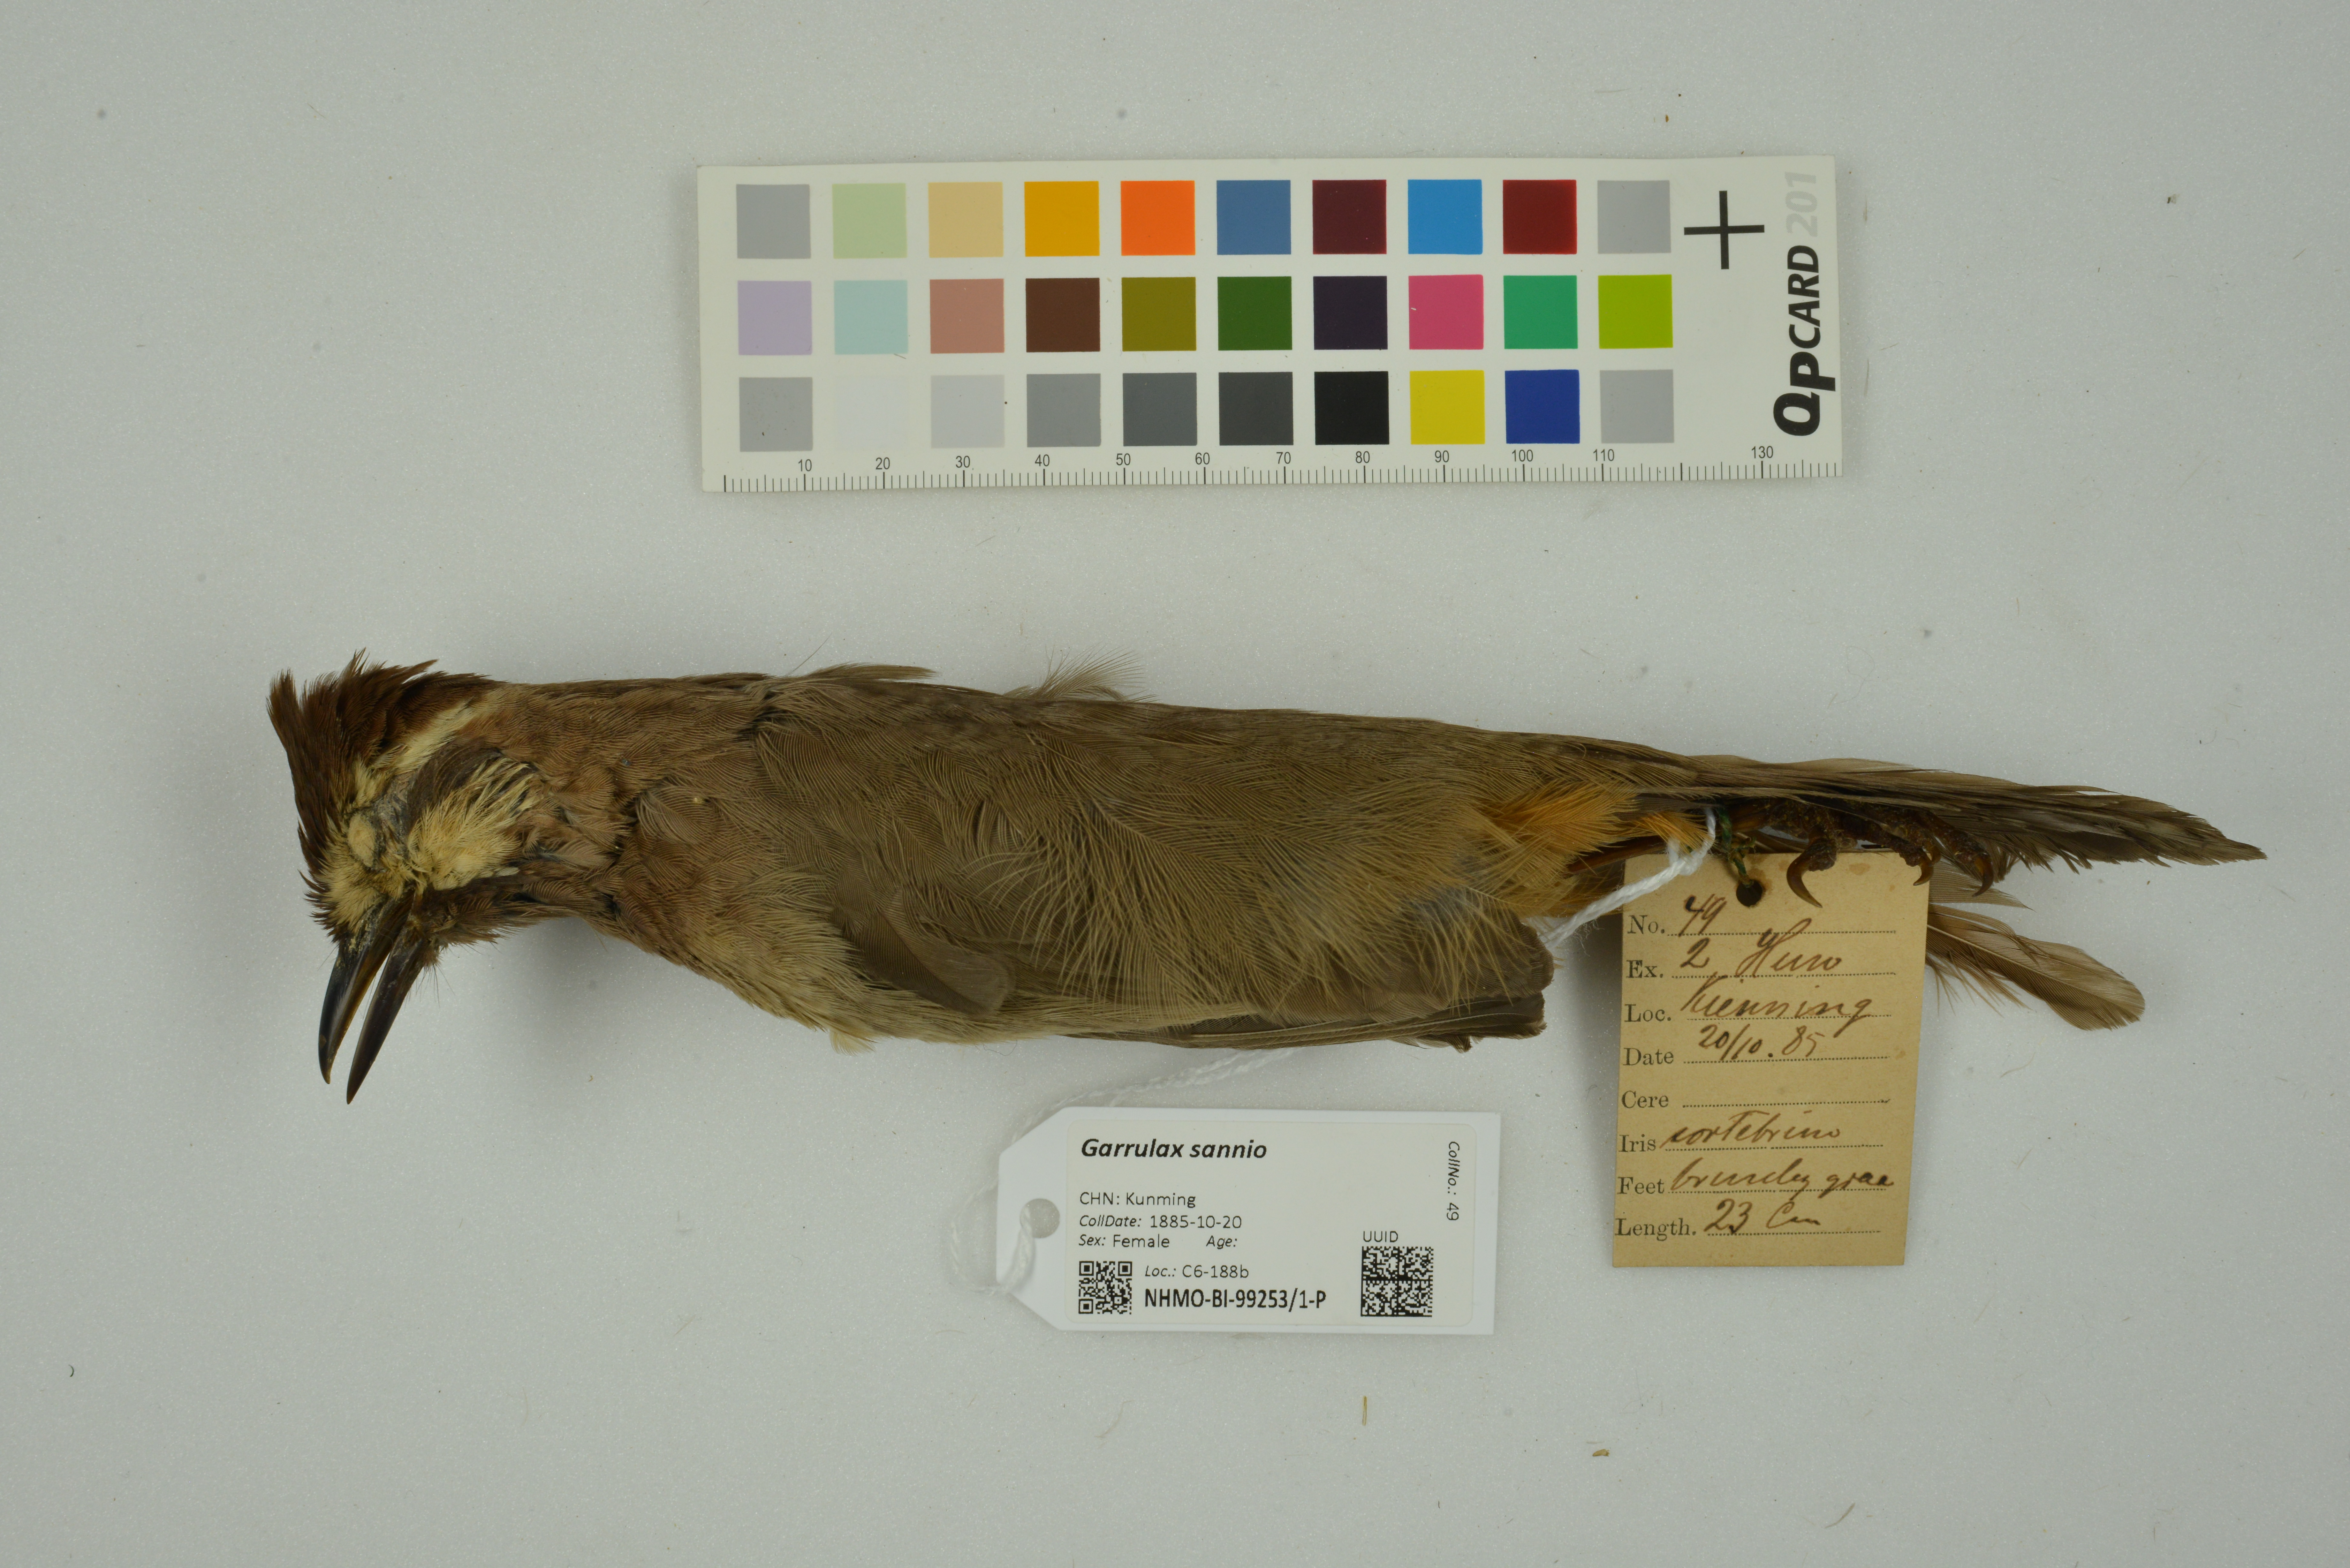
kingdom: Animalia
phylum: Chordata
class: Aves
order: Passeriformes
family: Leiothrichidae
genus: Pterorhinus
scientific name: Pterorhinus sannio
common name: White-browed laughingthrush
